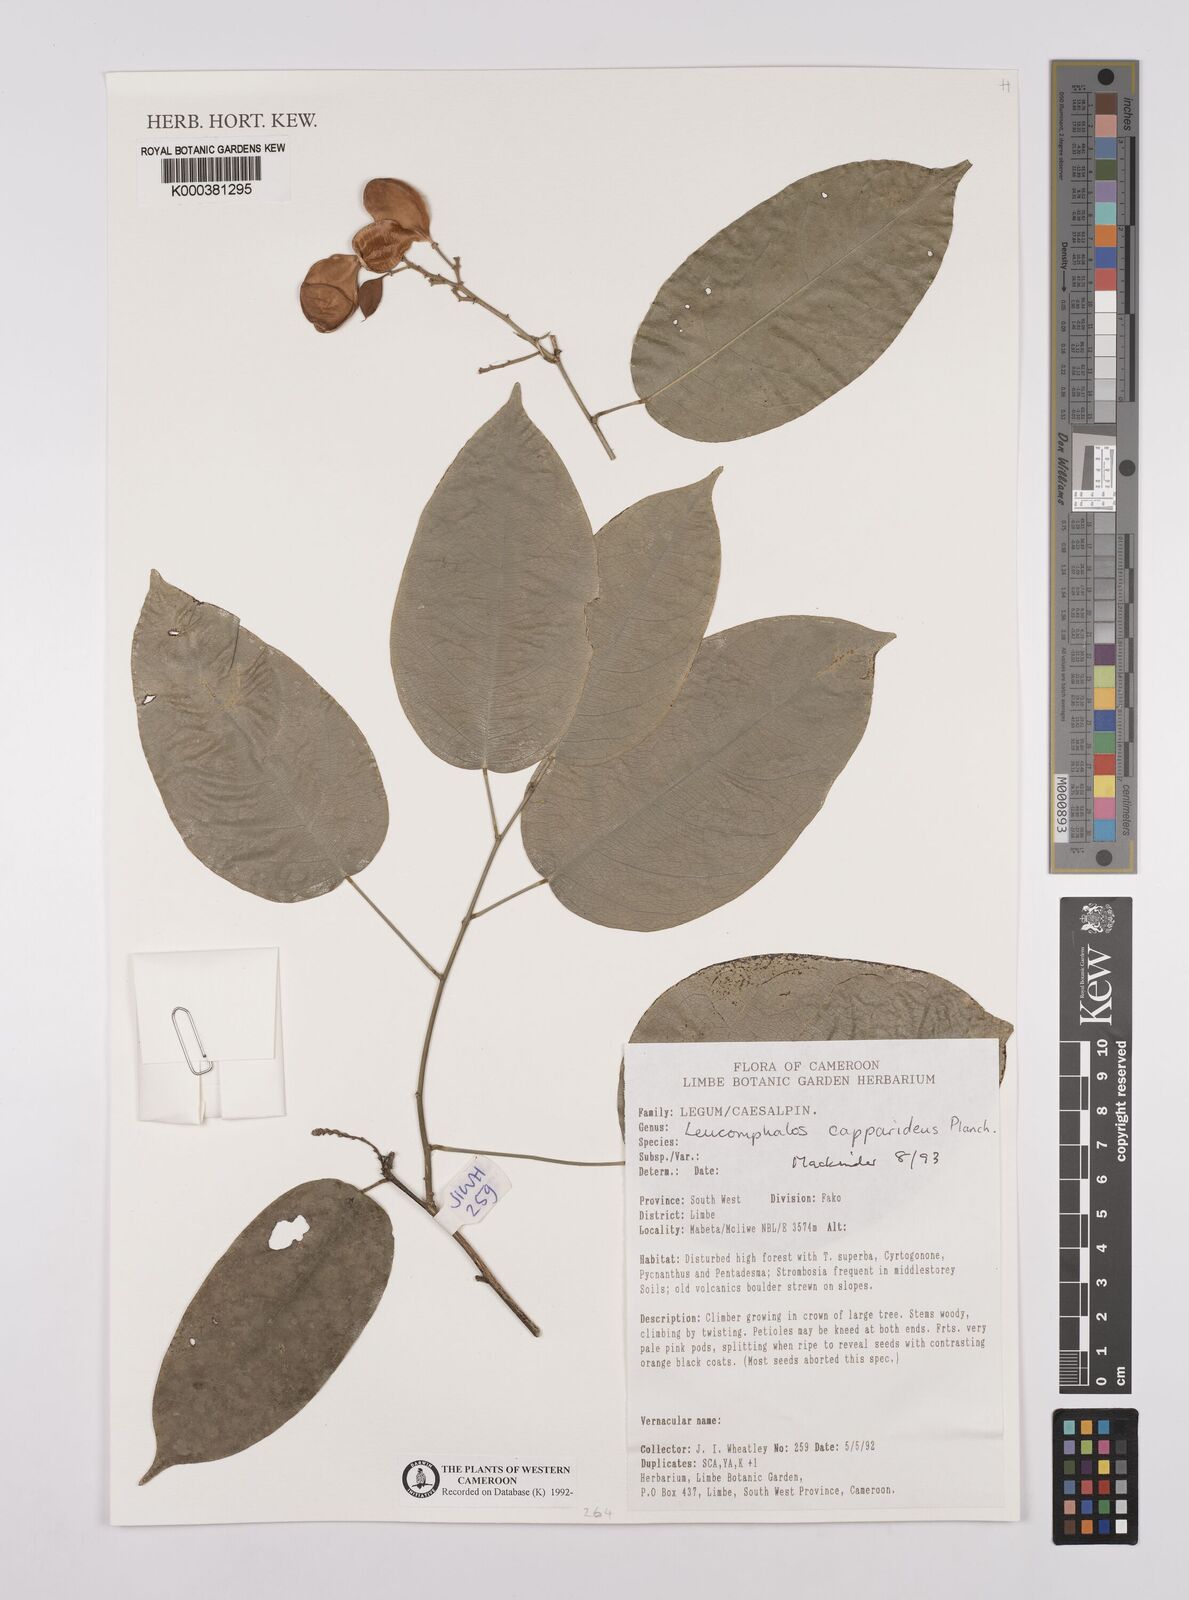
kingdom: Plantae
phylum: Tracheophyta
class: Magnoliopsida
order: Fabales
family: Fabaceae
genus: Leucomphalos
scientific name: Leucomphalos
